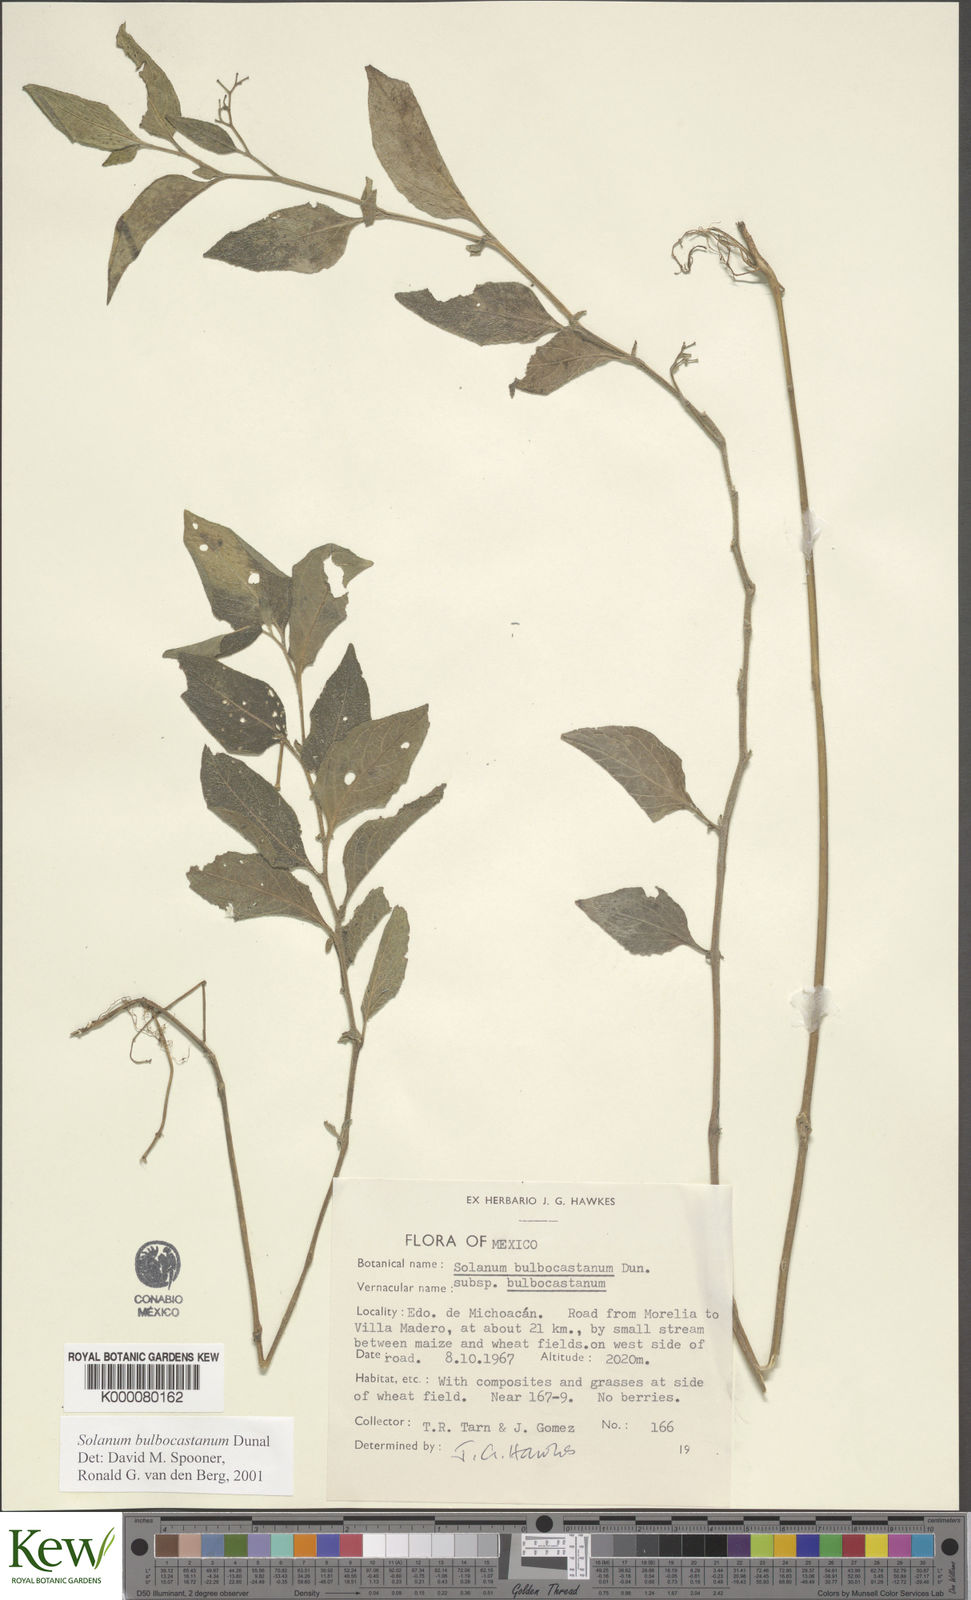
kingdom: Plantae
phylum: Tracheophyta
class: Magnoliopsida
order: Solanales
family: Solanaceae
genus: Solanum
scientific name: Solanum bulbocastanum
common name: Ornamental nightshade
